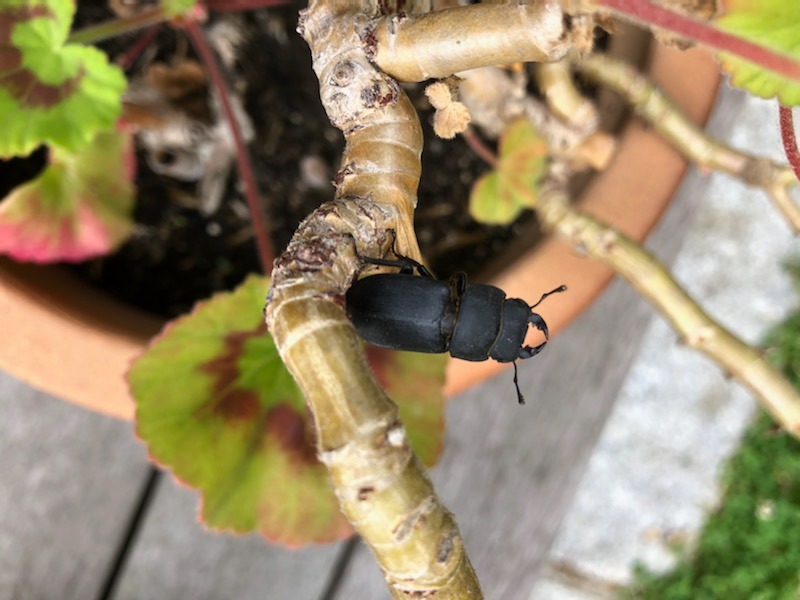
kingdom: Animalia
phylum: Arthropoda
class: Insecta
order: Coleoptera
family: Lucanidae
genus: Dorcus
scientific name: Dorcus parallelipipedus
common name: Bøghjort
